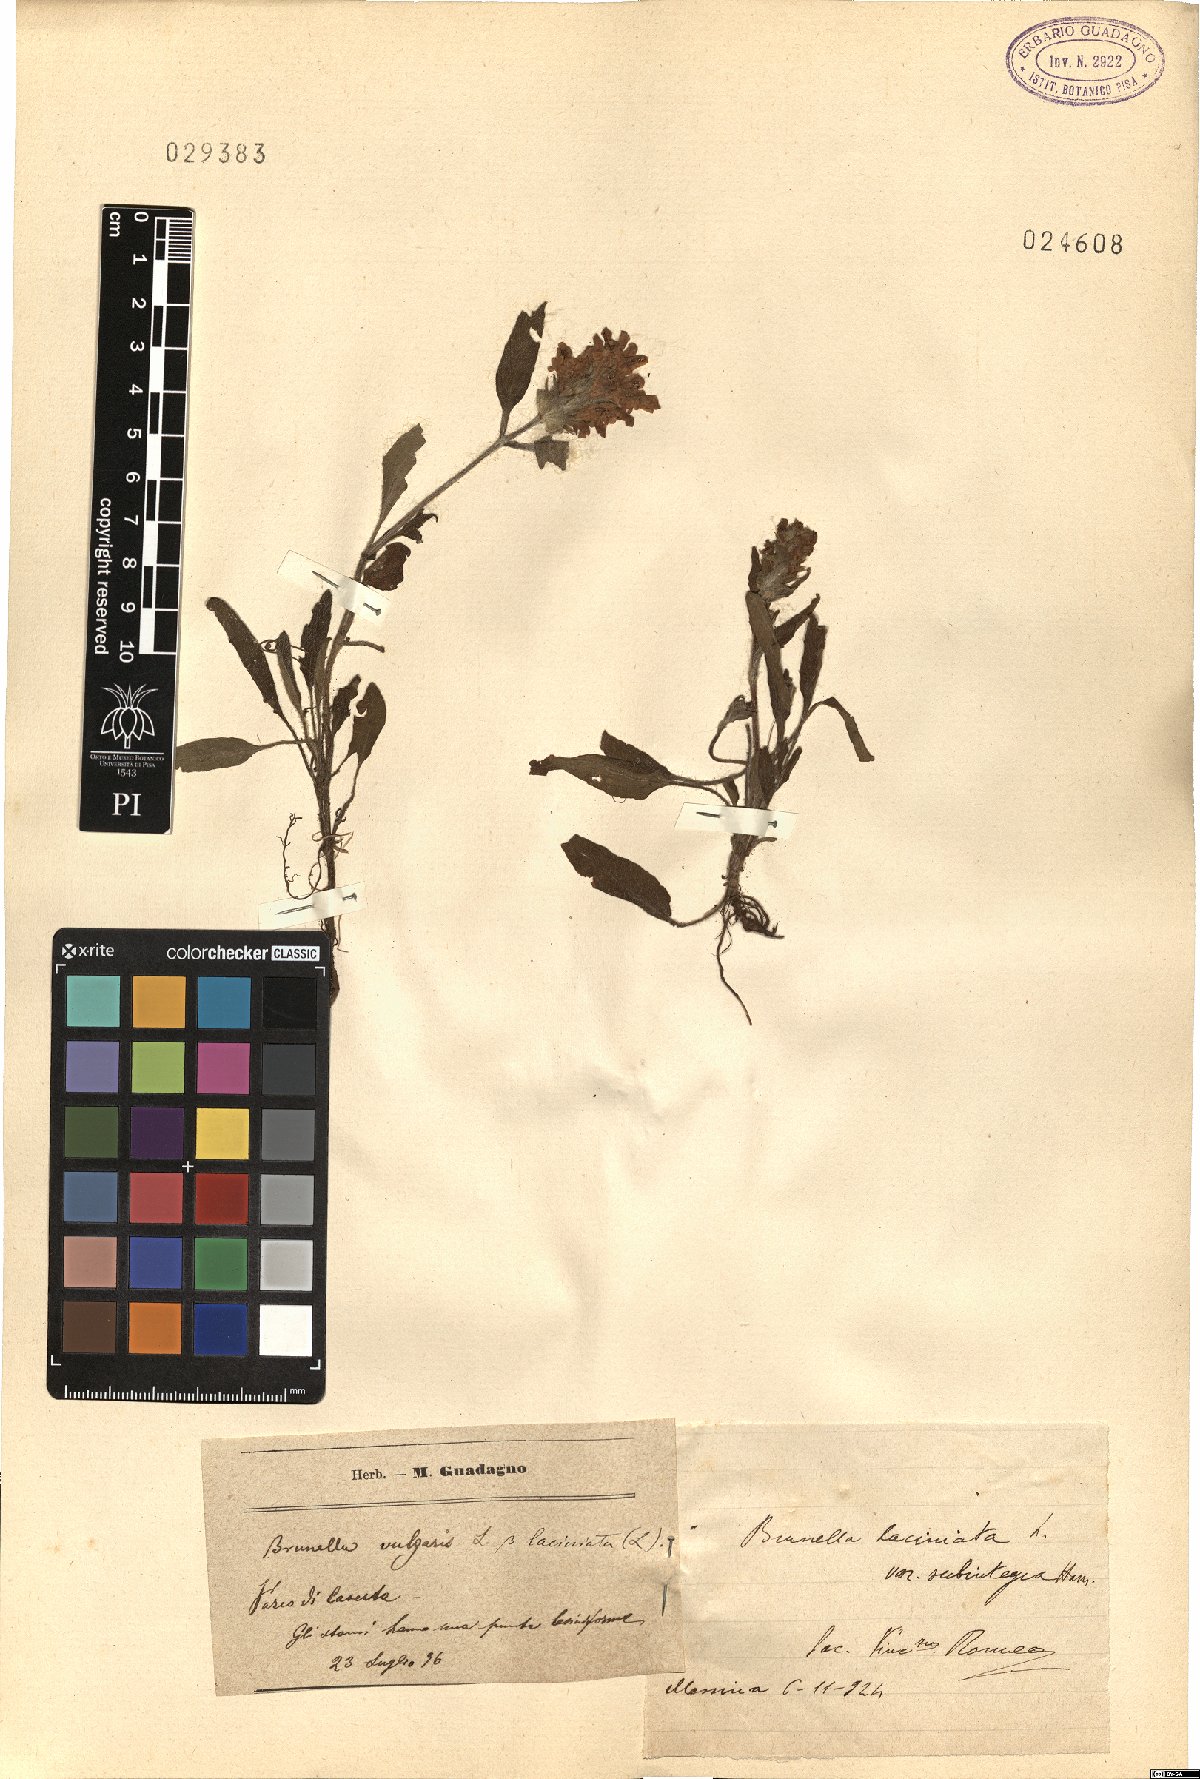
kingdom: Plantae
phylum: Tracheophyta
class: Magnoliopsida
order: Lamiales
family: Lamiaceae
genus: Prunella
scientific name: Prunella laciniata
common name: Cut-leaved selfheal
